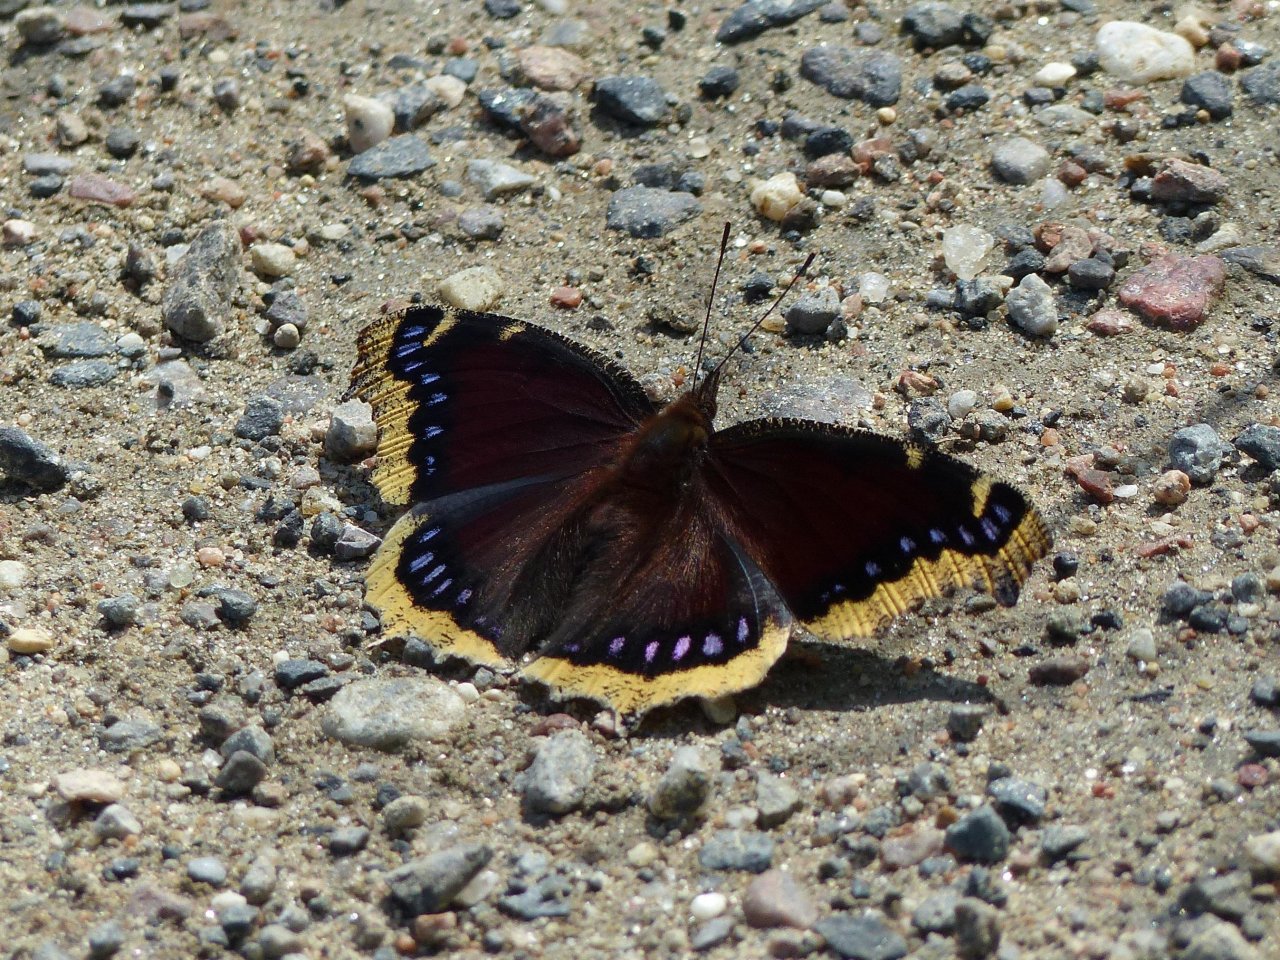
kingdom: Animalia
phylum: Arthropoda
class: Insecta
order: Lepidoptera
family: Nymphalidae
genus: Nymphalis
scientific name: Nymphalis antiopa
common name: Mourning Cloak
